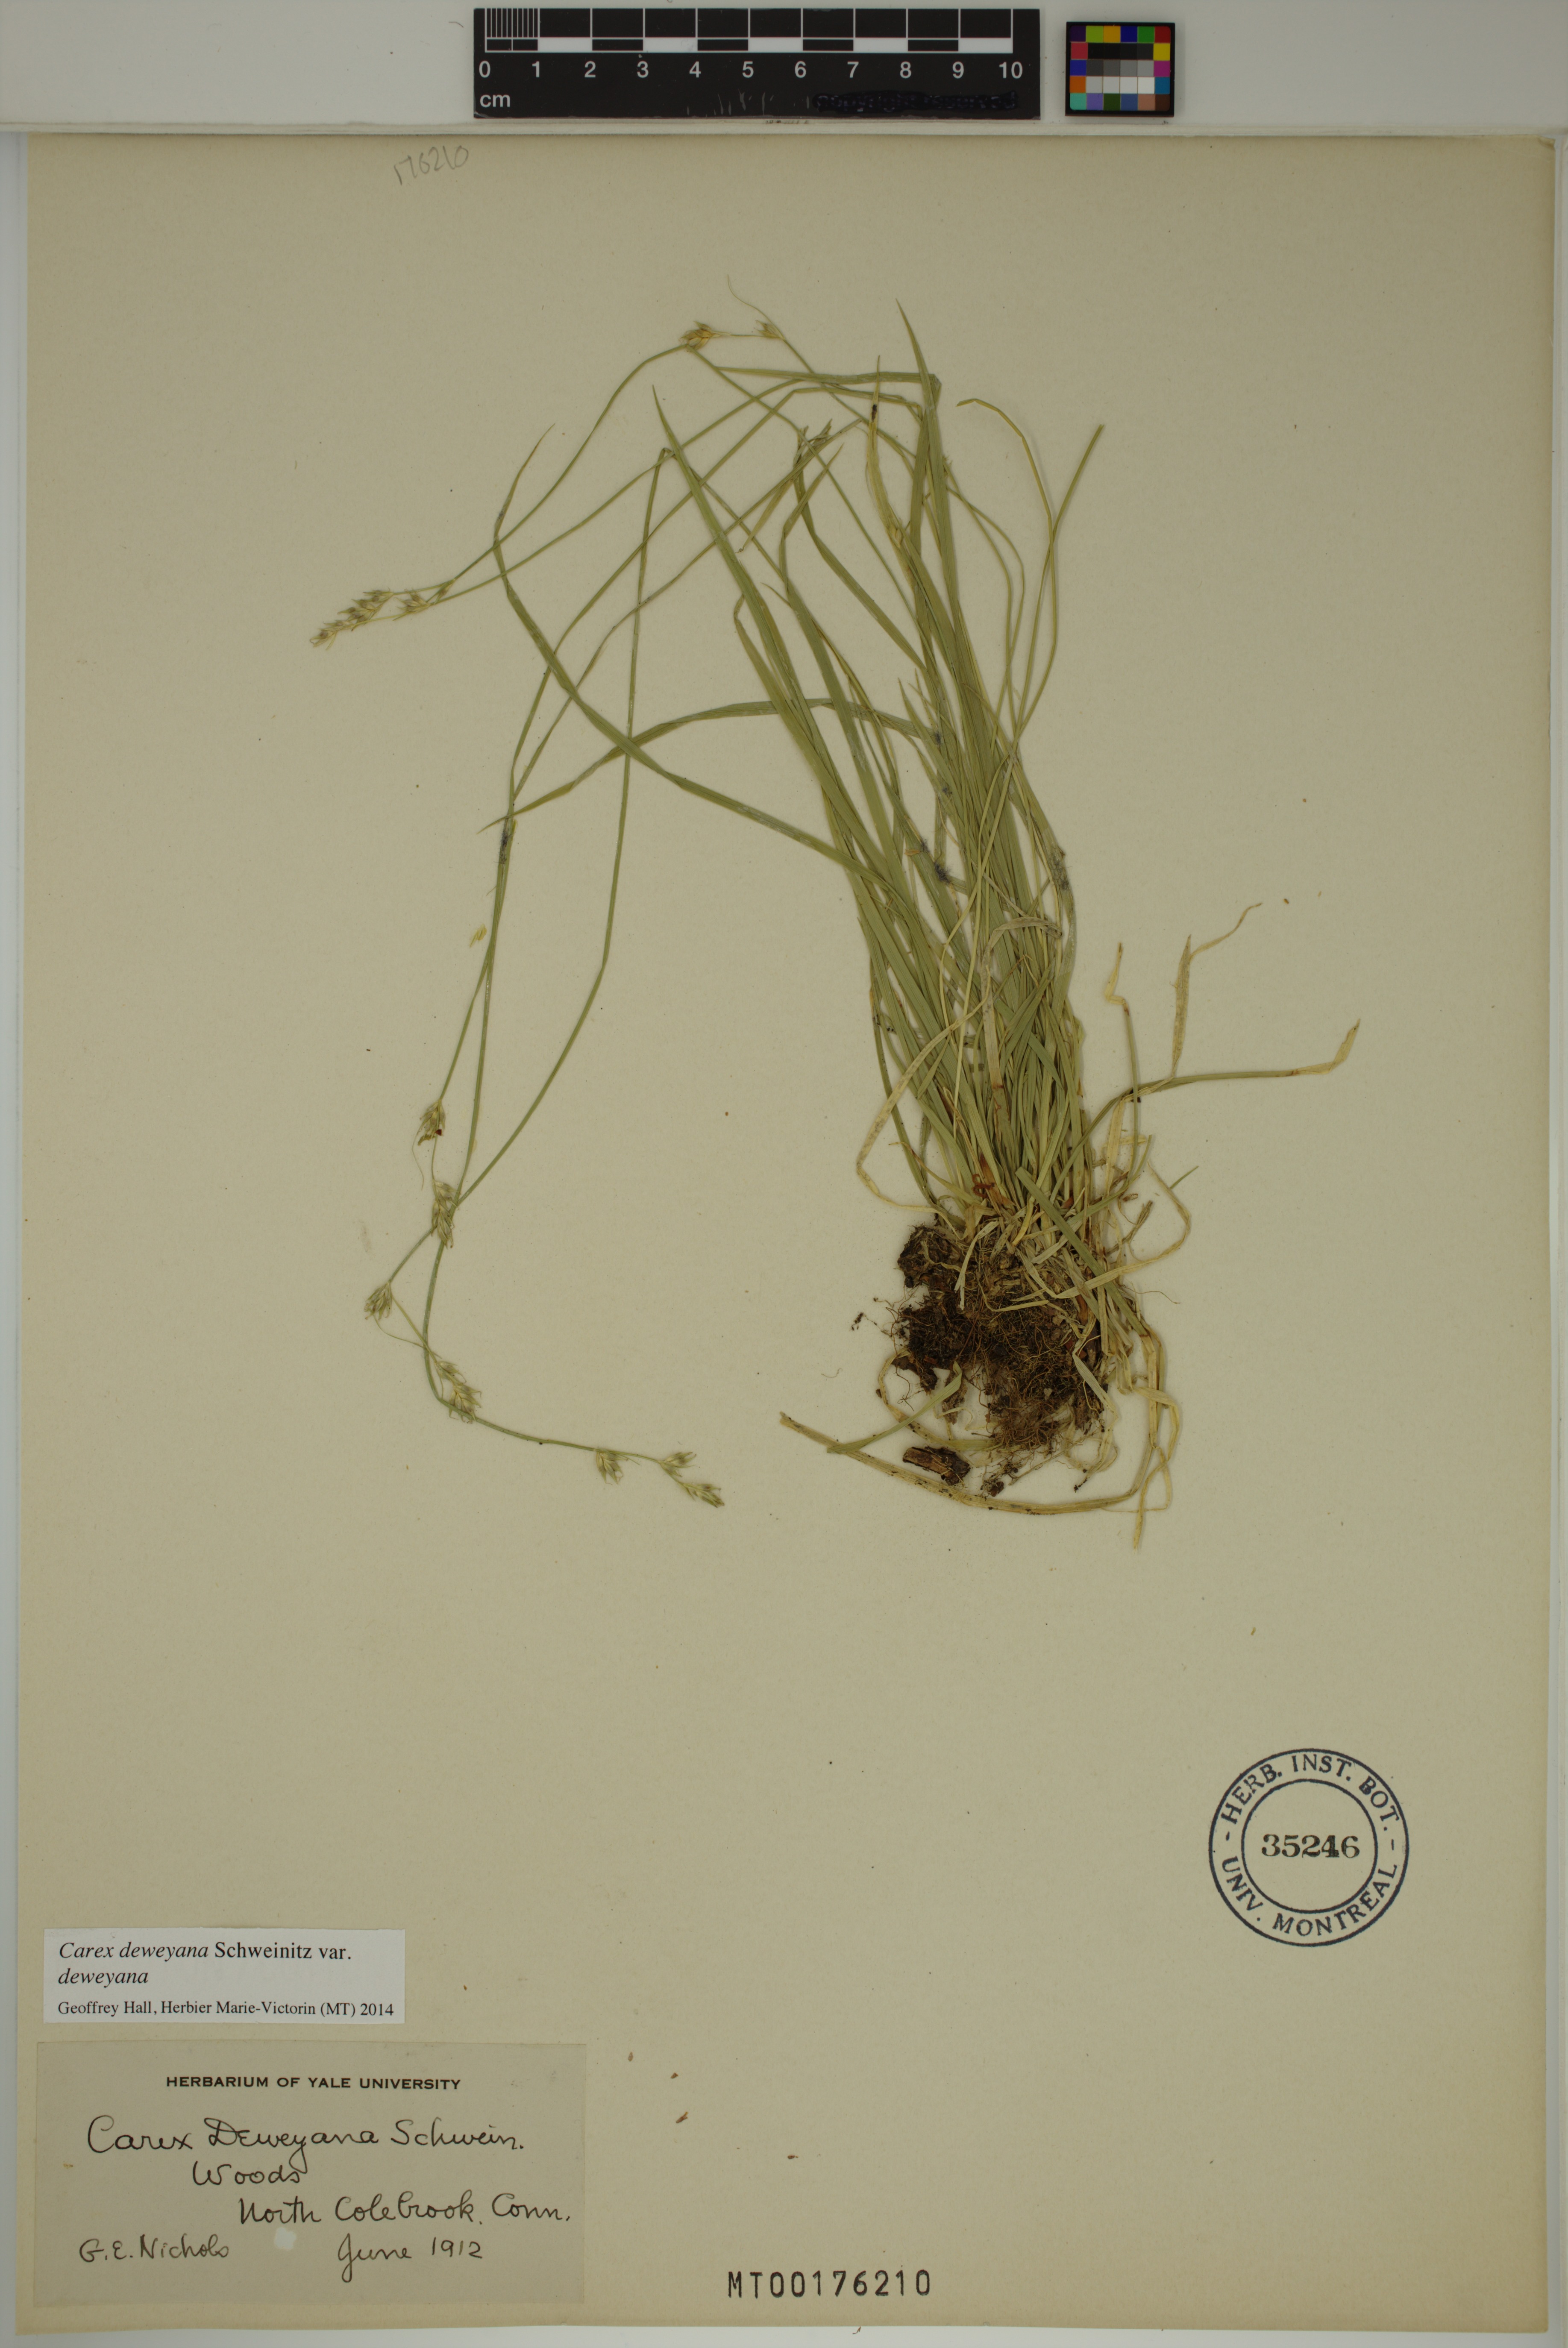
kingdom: Plantae
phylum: Tracheophyta
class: Liliopsida
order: Poales
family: Cyperaceae
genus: Carex
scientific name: Carex deweyana
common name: Dewey's sedge
